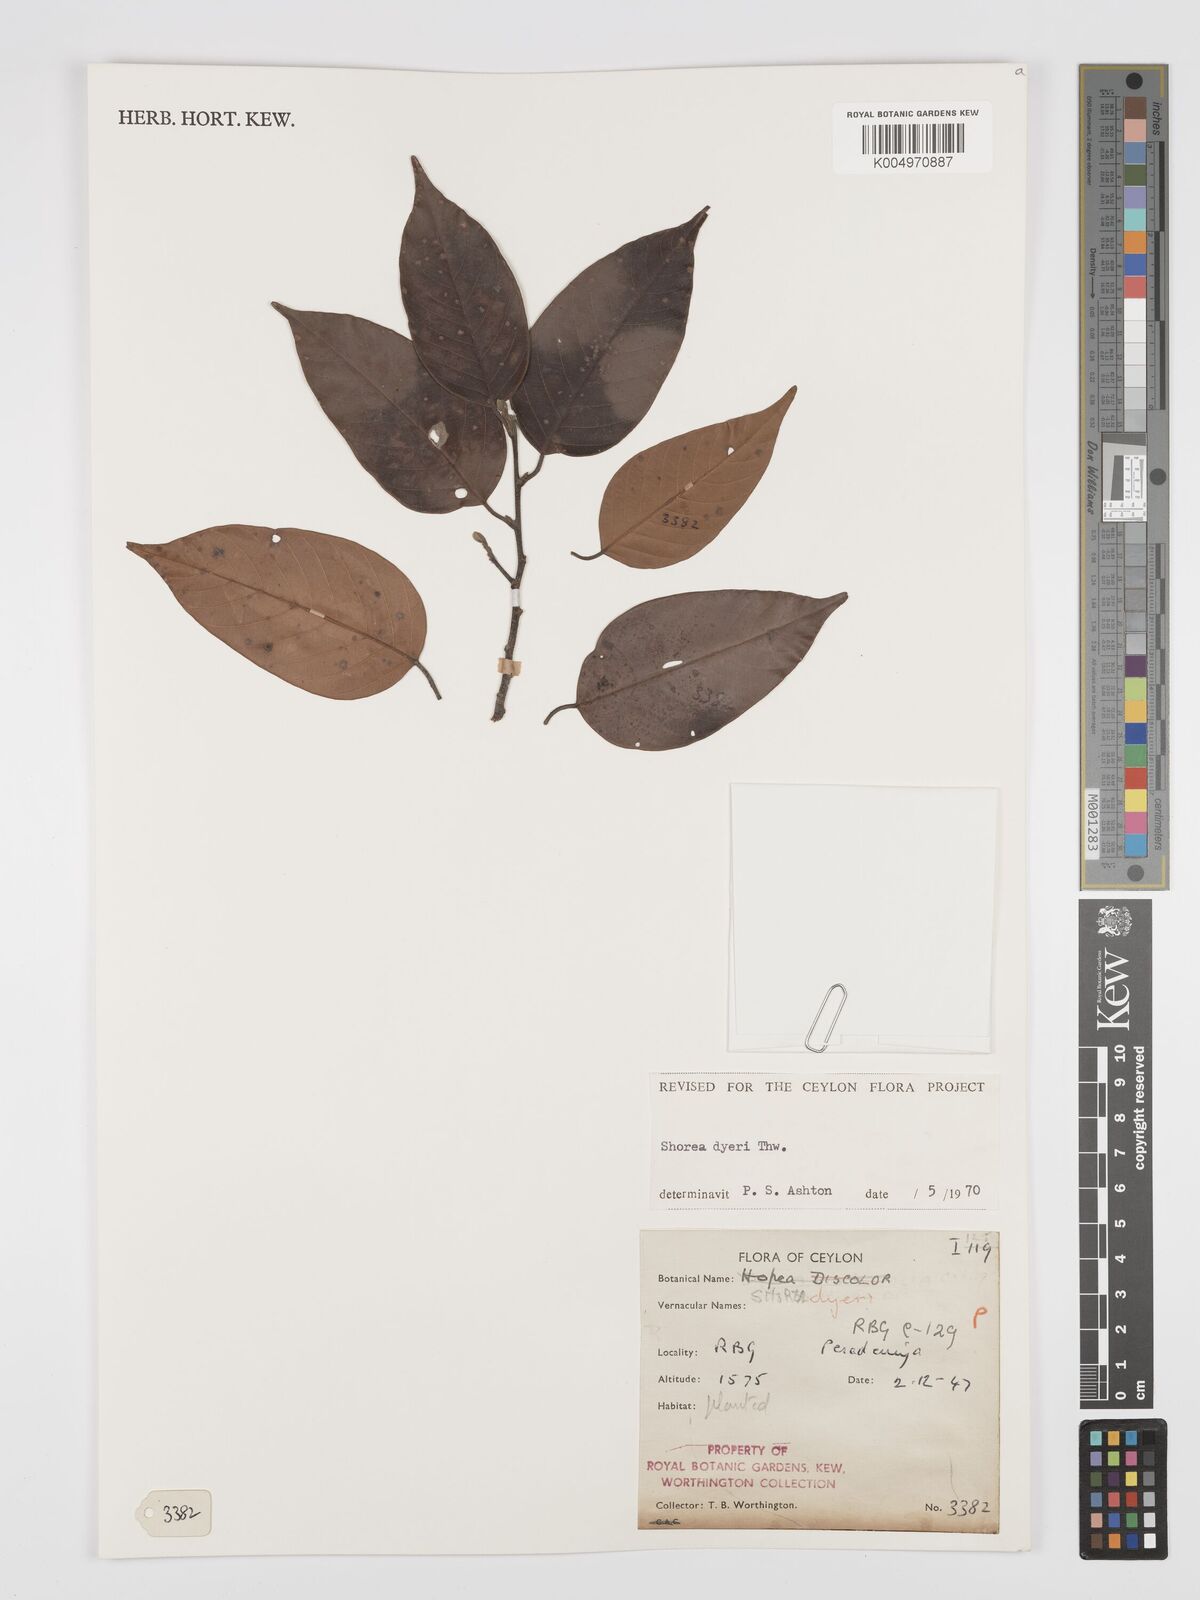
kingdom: Plantae
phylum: Tracheophyta
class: Magnoliopsida
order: Malvales
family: Dipterocarpaceae
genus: Shorea
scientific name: Shorea dyeri
